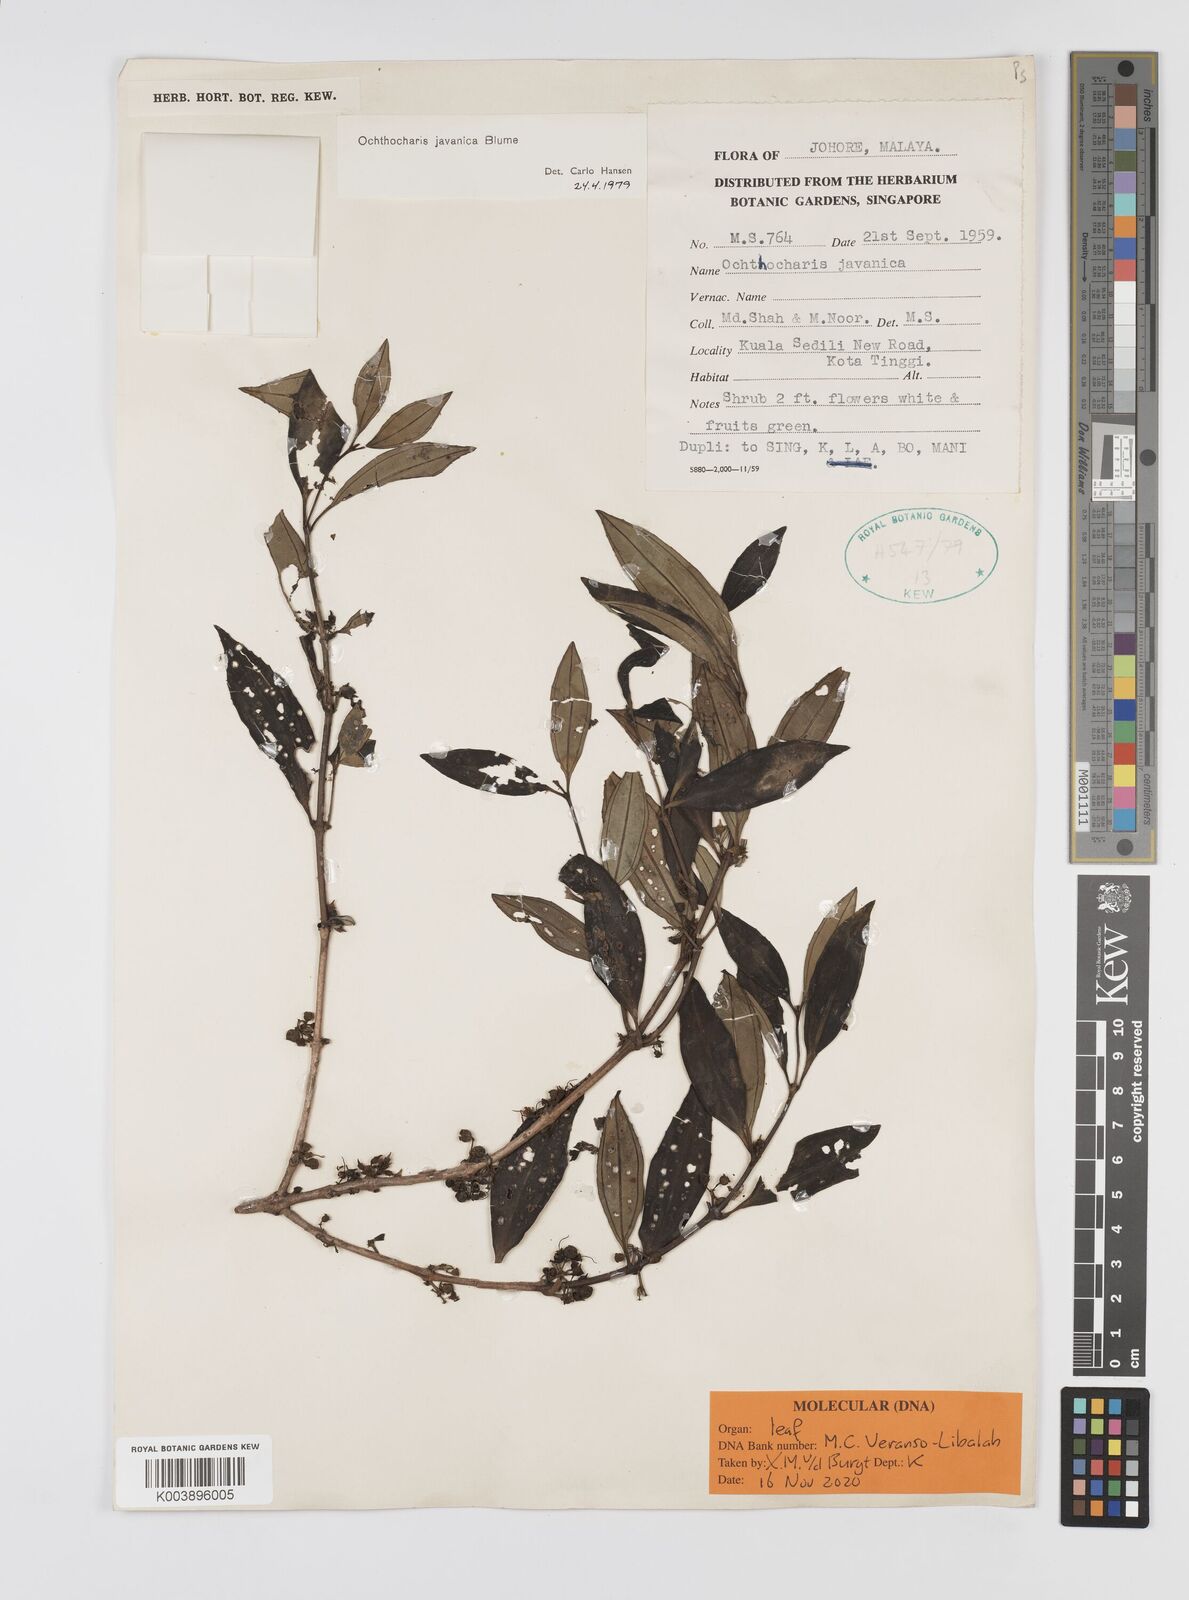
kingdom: Plantae
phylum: Tracheophyta
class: Magnoliopsida
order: Myrtales
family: Melastomataceae
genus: Ochthocharis
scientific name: Ochthocharis javanica
